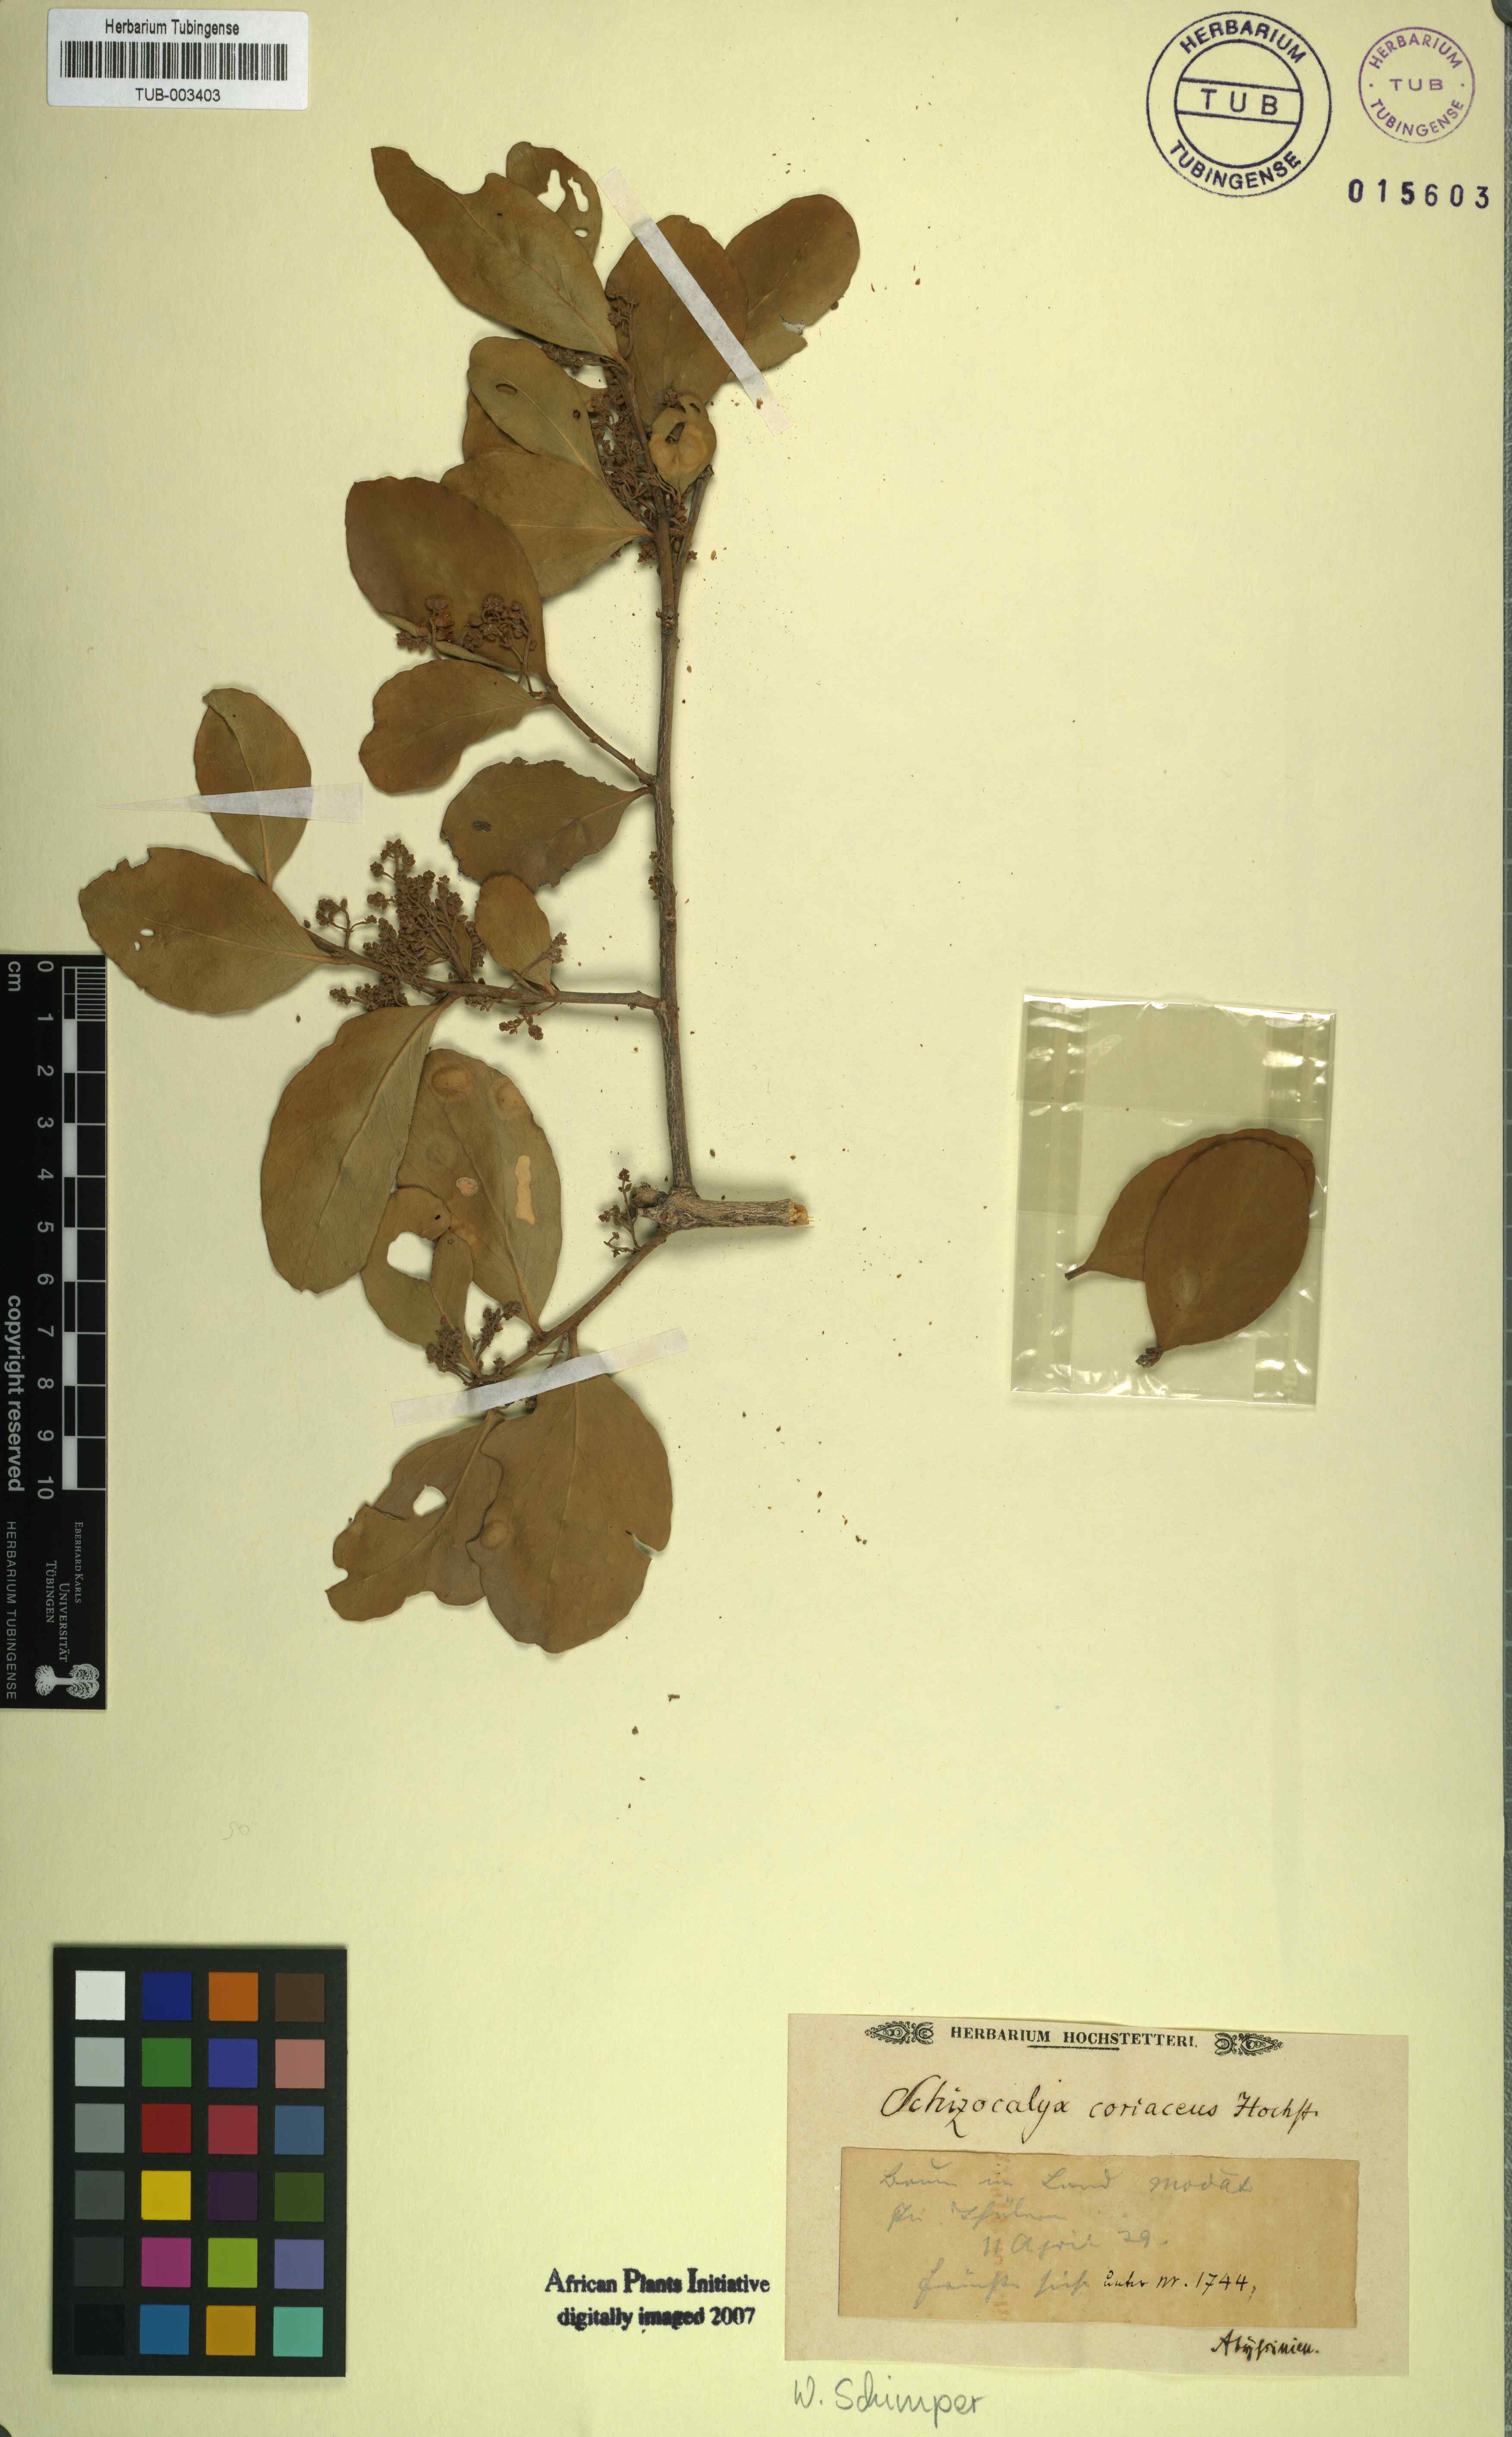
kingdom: Plantae
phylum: Tracheophyta
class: Magnoliopsida
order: Sapindales
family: Anacardiaceae
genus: Nothopegia
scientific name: Nothopegia colebrookeana
